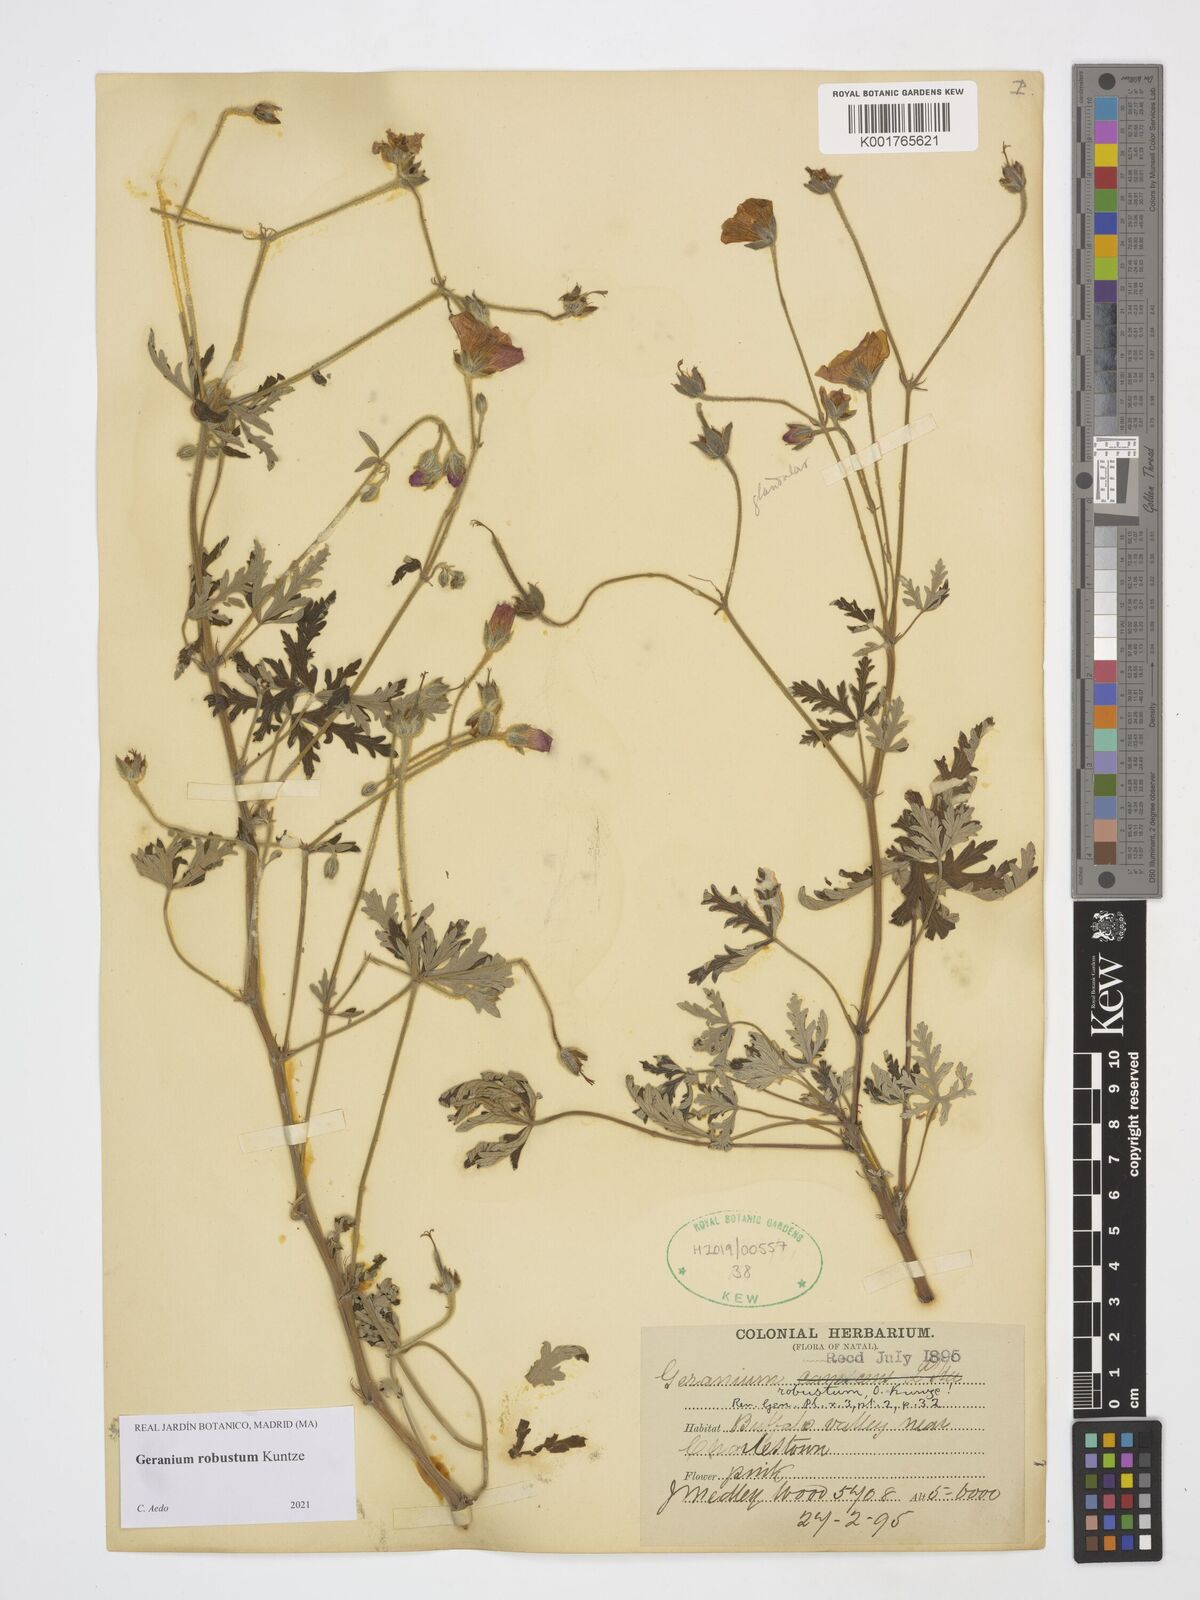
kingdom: Plantae
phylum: Tracheophyta
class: Magnoliopsida
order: Geraniales
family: Geraniaceae
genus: Geranium
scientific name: Geranium robustum
